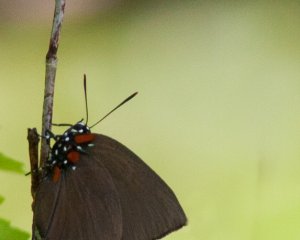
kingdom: Animalia
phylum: Arthropoda
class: Insecta
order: Lepidoptera
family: Lycaenidae
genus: Atlides
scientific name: Atlides halesus
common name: Great Purple Hairstreak
